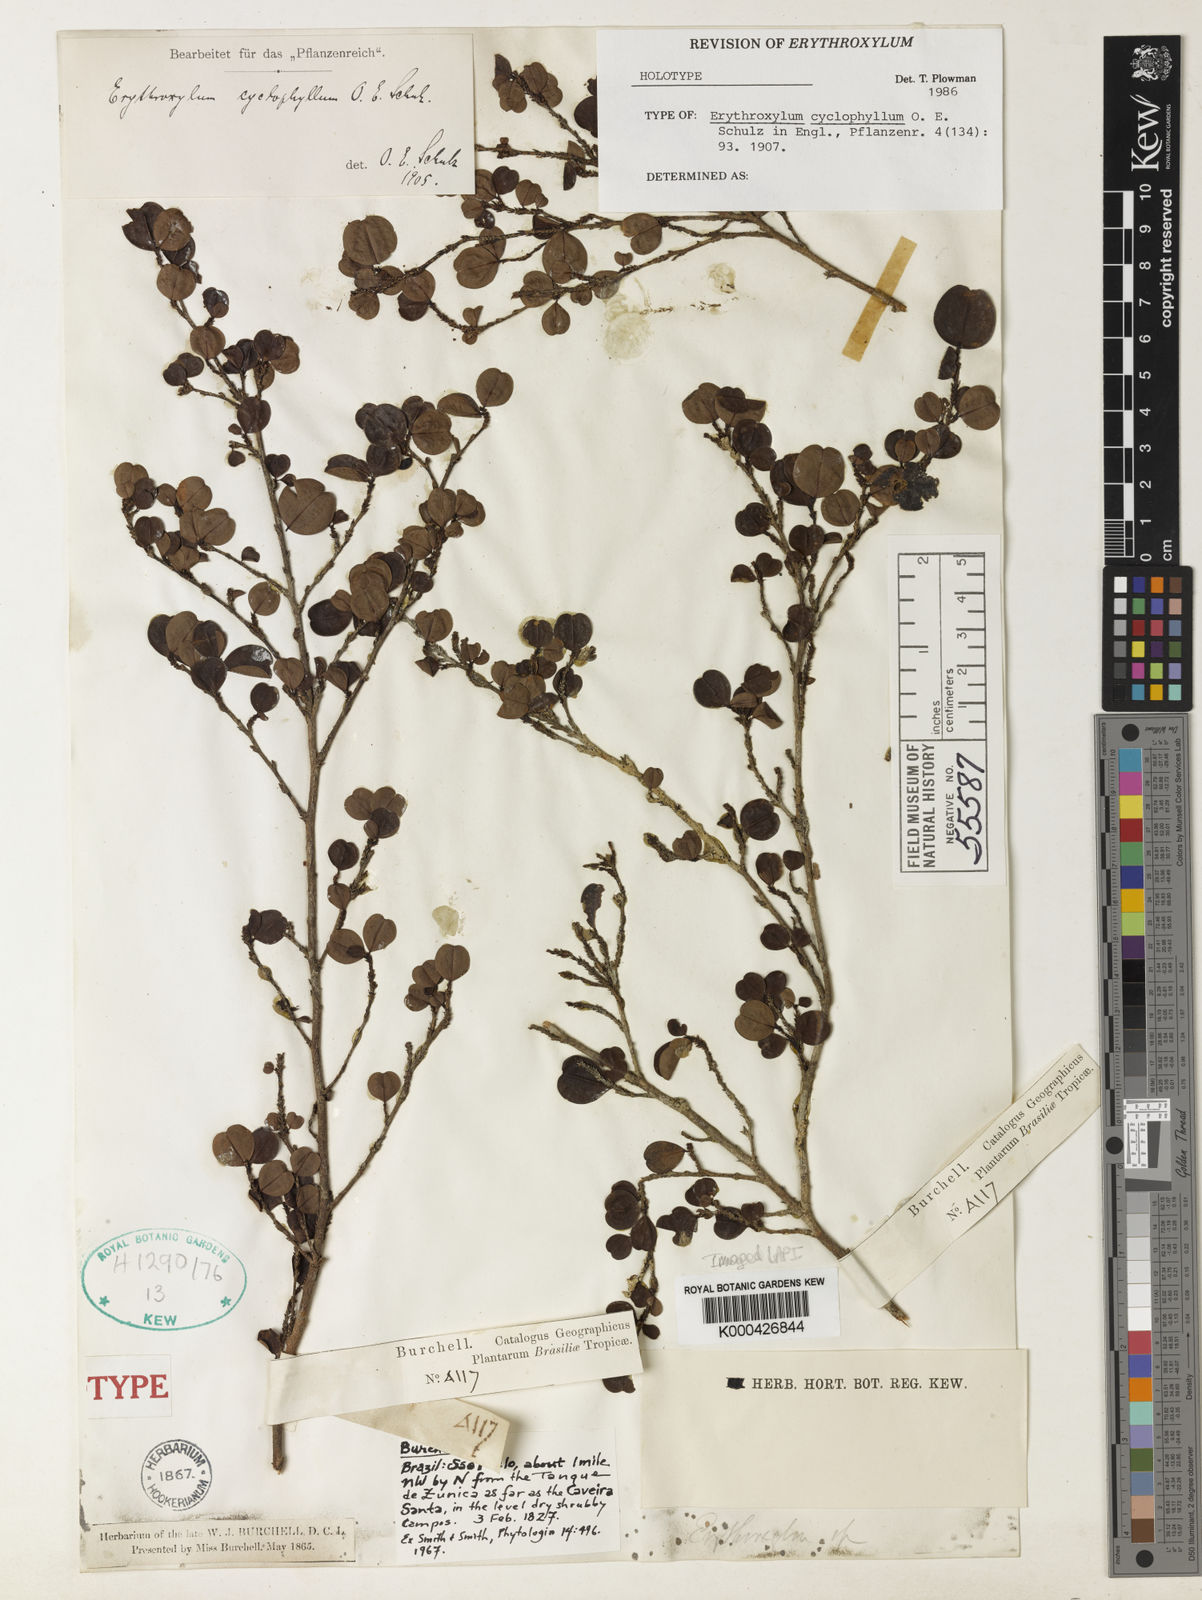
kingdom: Plantae
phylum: Tracheophyta
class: Magnoliopsida
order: Malpighiales
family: Erythroxylaceae
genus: Erythroxylum
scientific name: Erythroxylum cuneifolium
